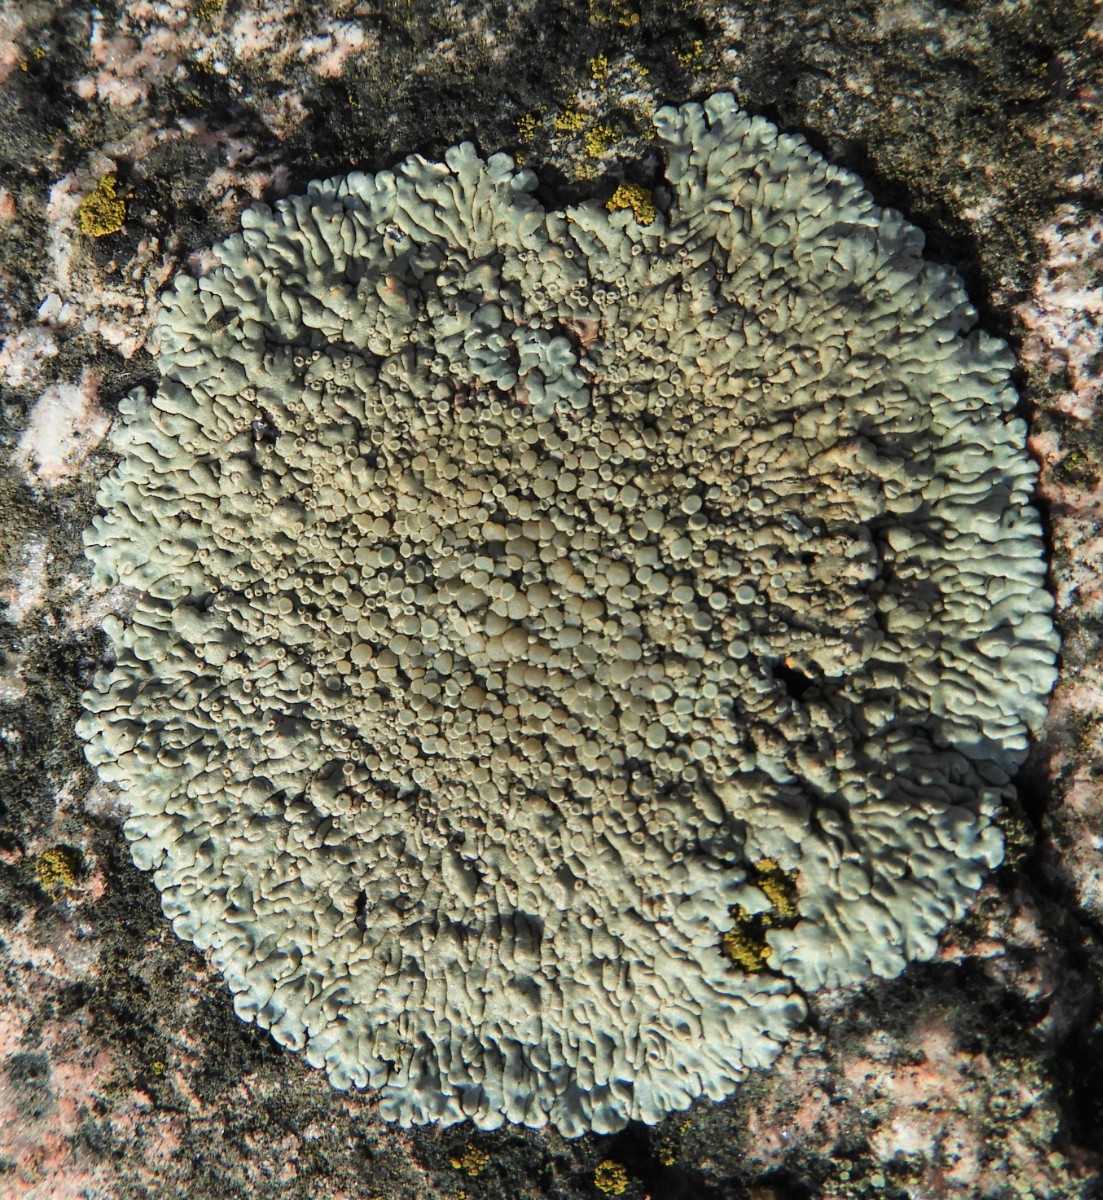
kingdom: Fungi
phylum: Ascomycota
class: Lecanoromycetes
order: Lecanorales
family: Lecanoraceae
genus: Protoparmeliopsis
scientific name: Protoparmeliopsis muralis
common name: randfliget kantskivelav
